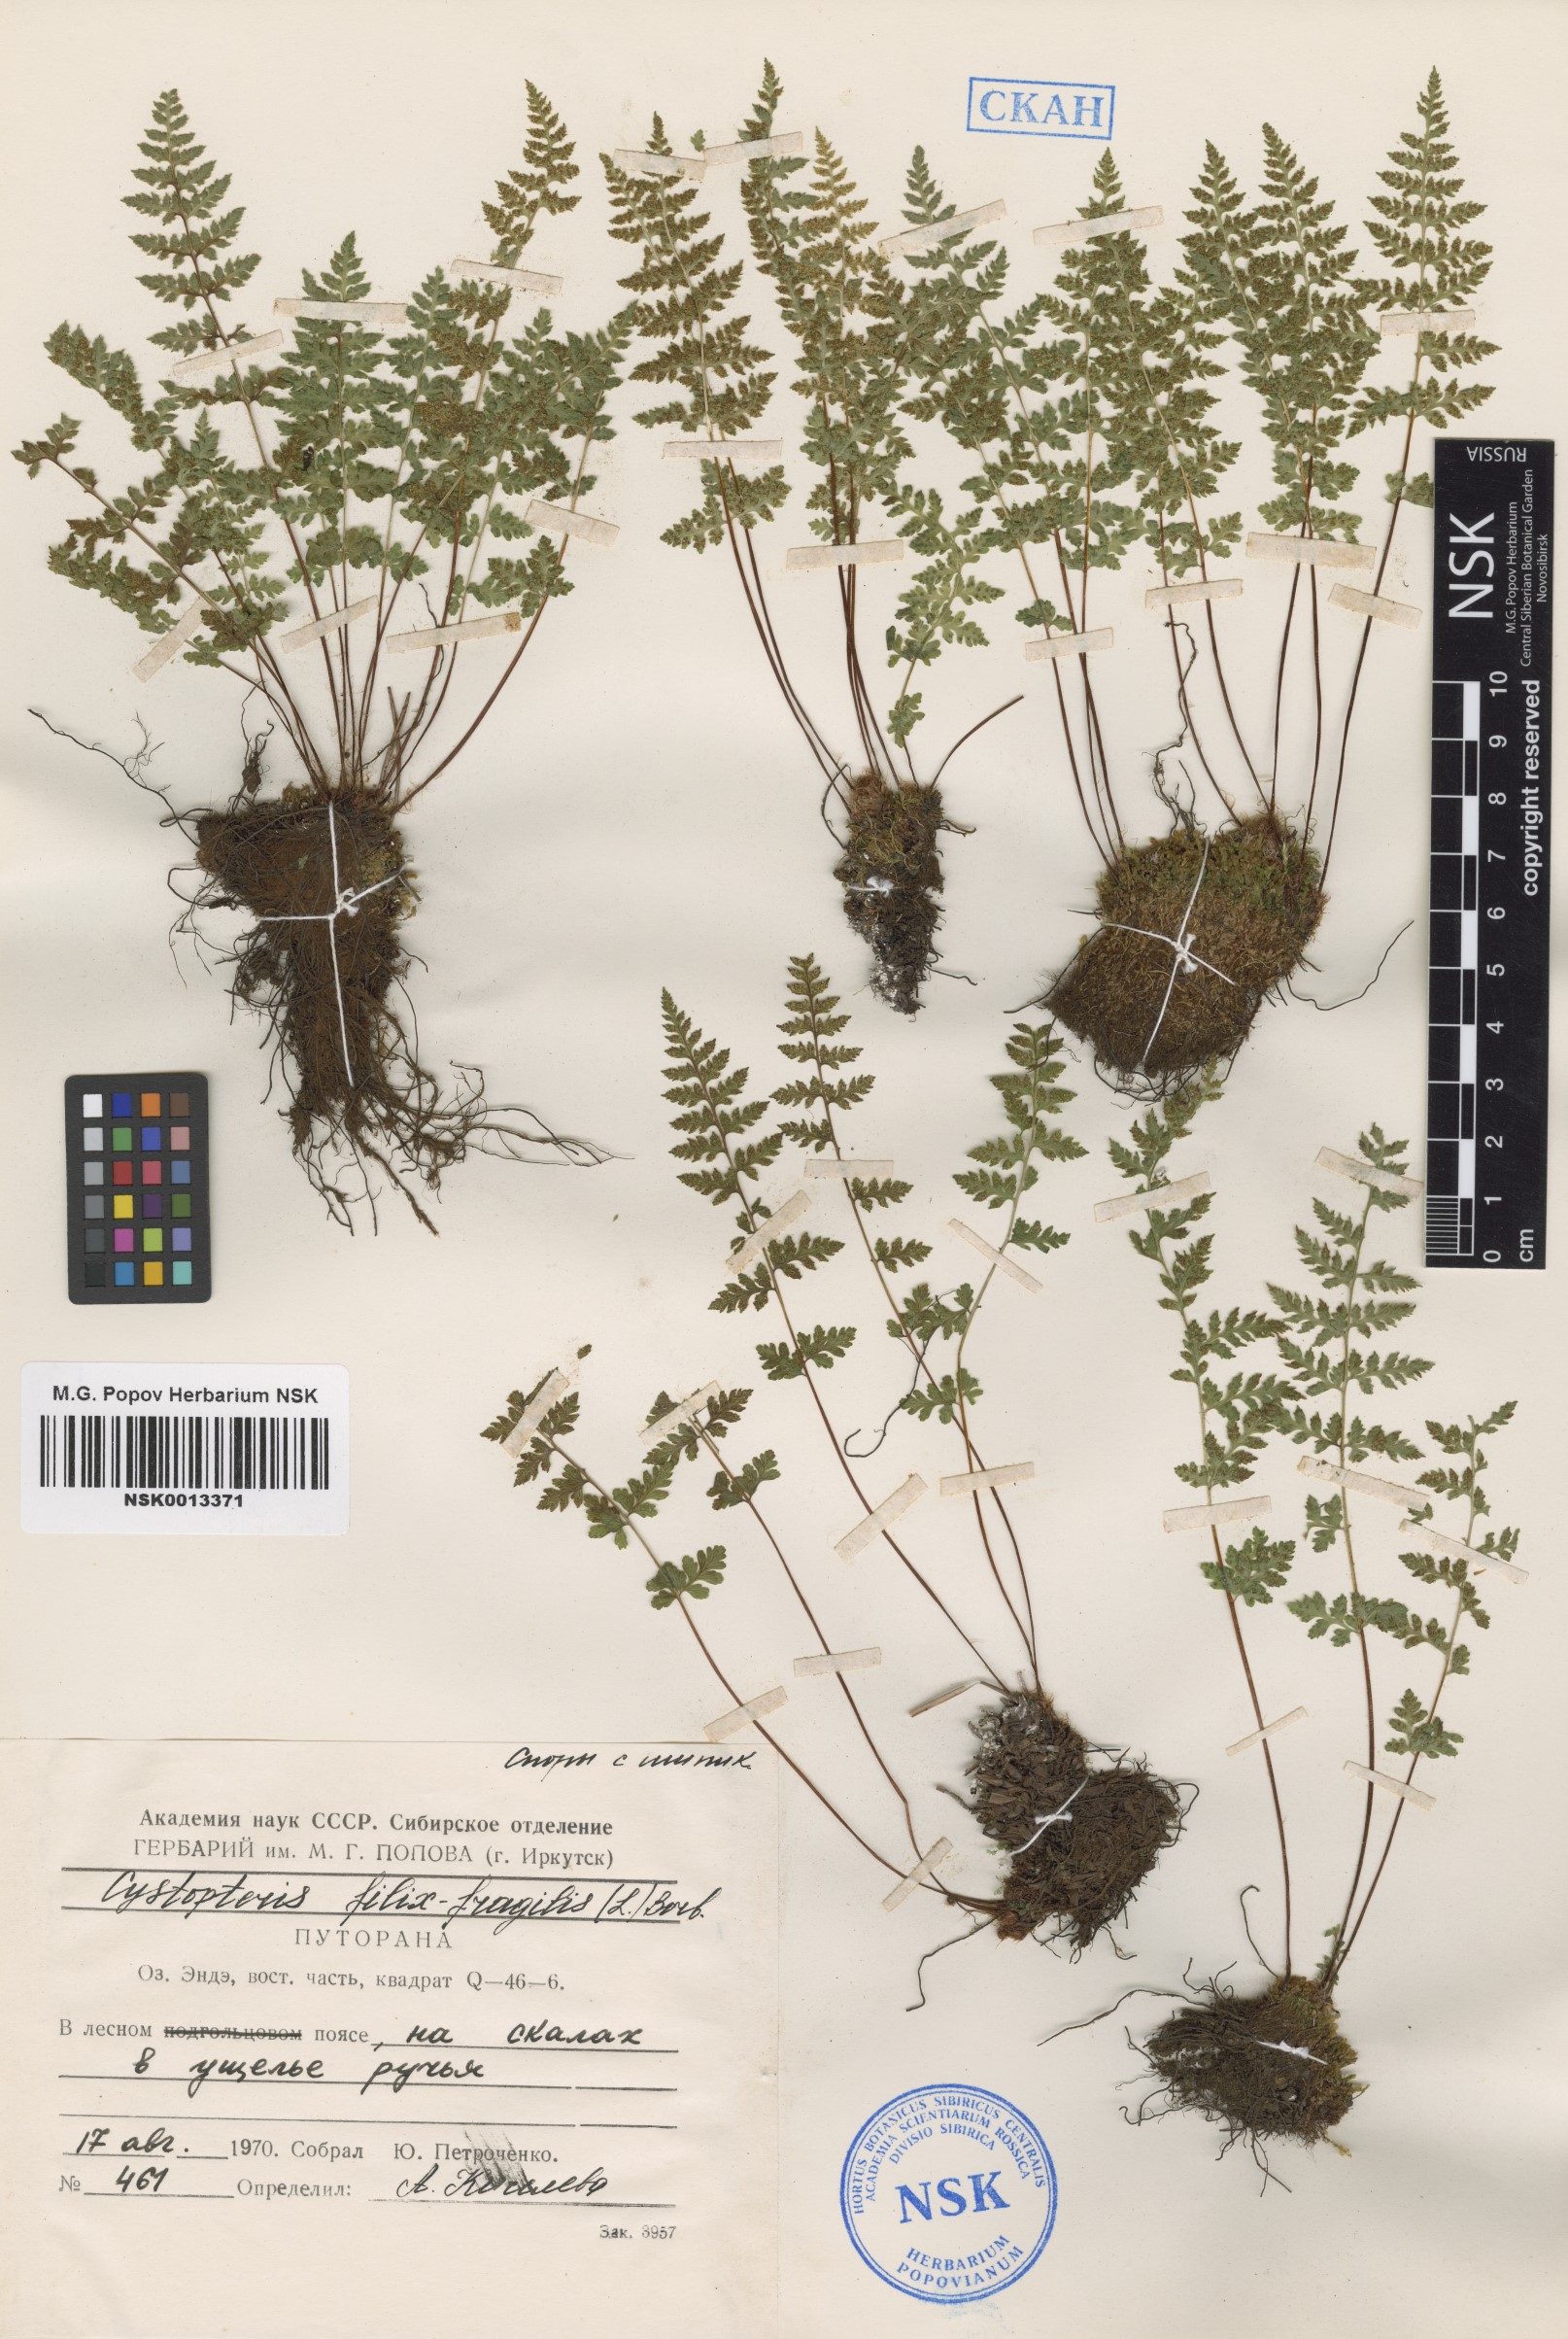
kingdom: Plantae
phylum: Tracheophyta
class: Polypodiopsida
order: Polypodiales
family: Cystopteridaceae
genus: Cystopteris
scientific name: Cystopteris fragilis
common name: Brittle bladder fern
